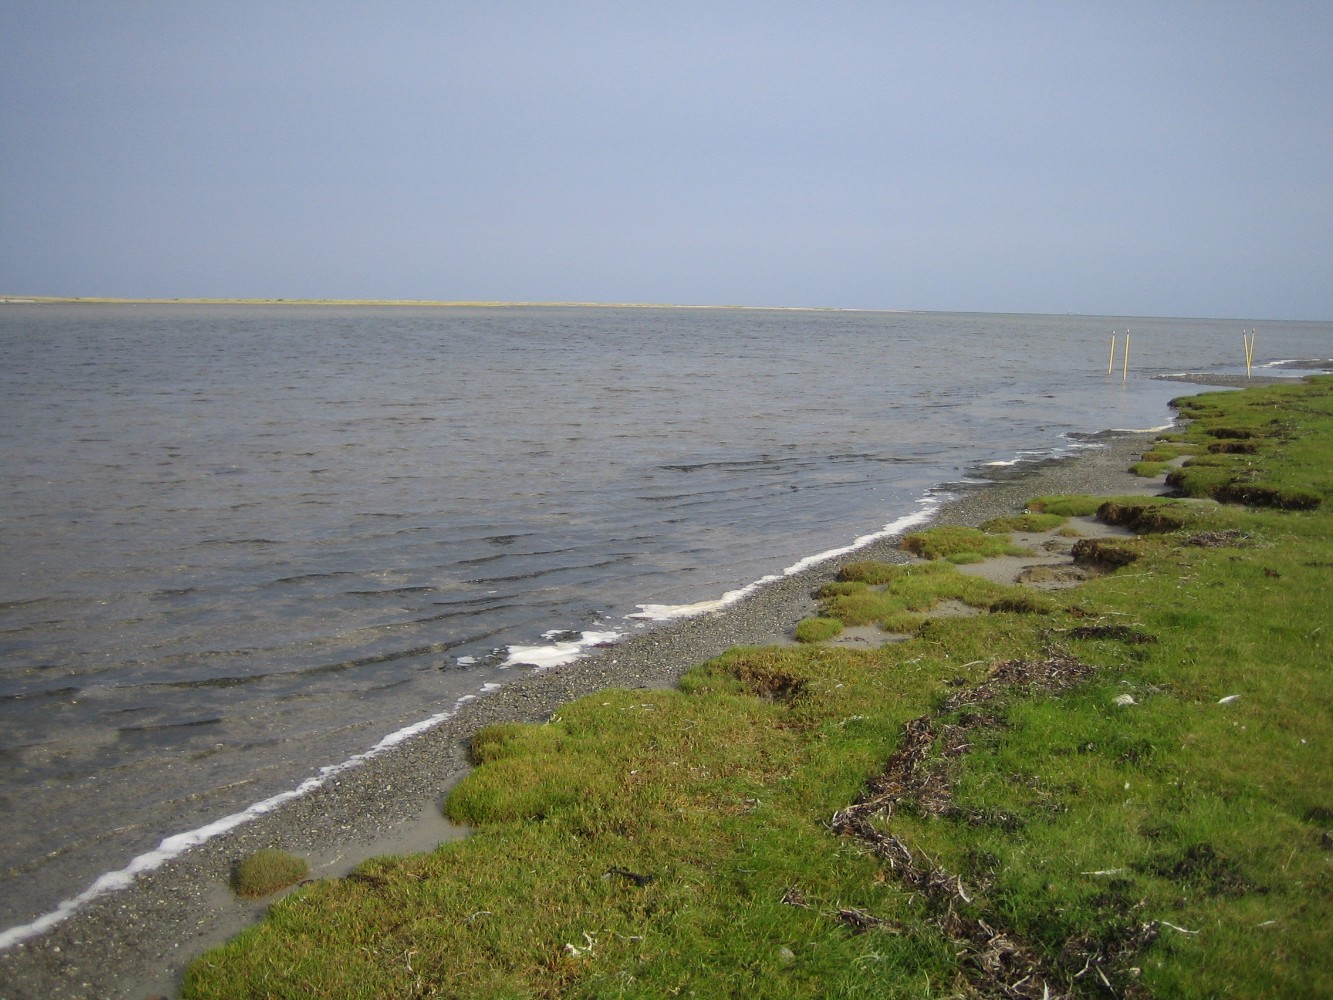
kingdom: Fungi
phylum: Basidiomycota
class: Agaricomycetes
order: Agaricales
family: Lycoperdaceae
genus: Bovista
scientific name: Bovista
